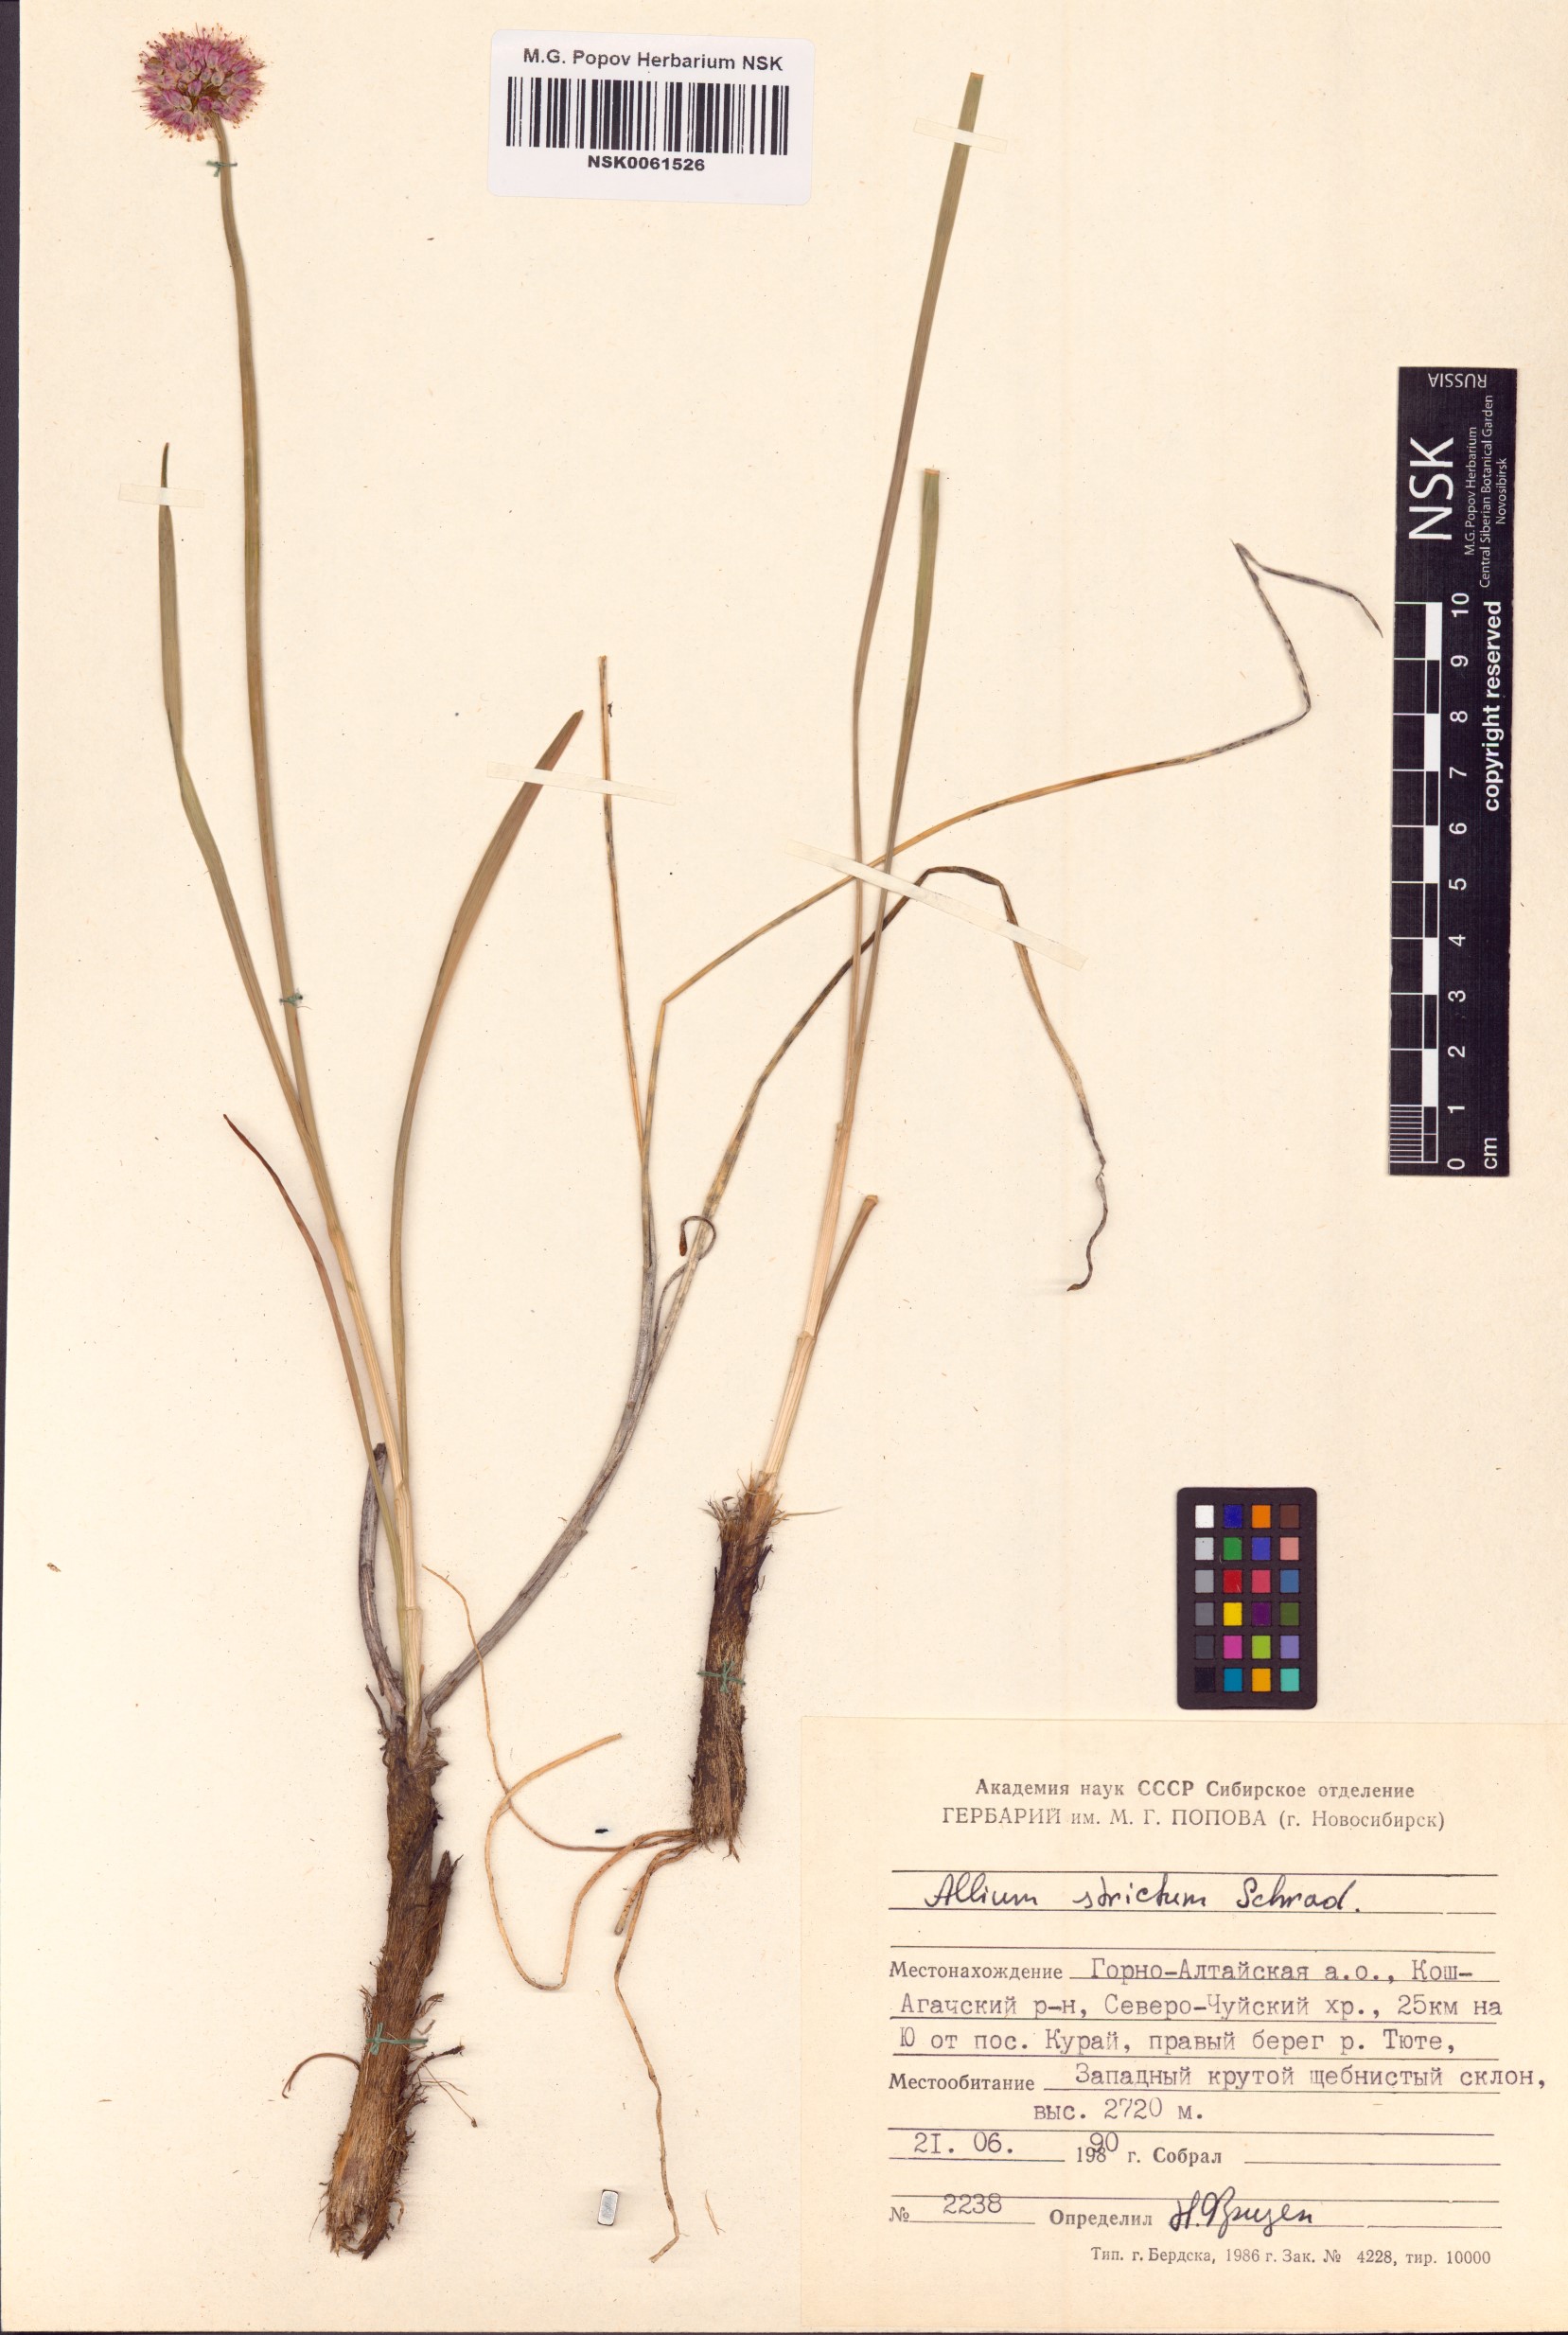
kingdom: Plantae
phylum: Tracheophyta
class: Liliopsida
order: Asparagales
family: Amaryllidaceae
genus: Allium
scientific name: Allium strictum
